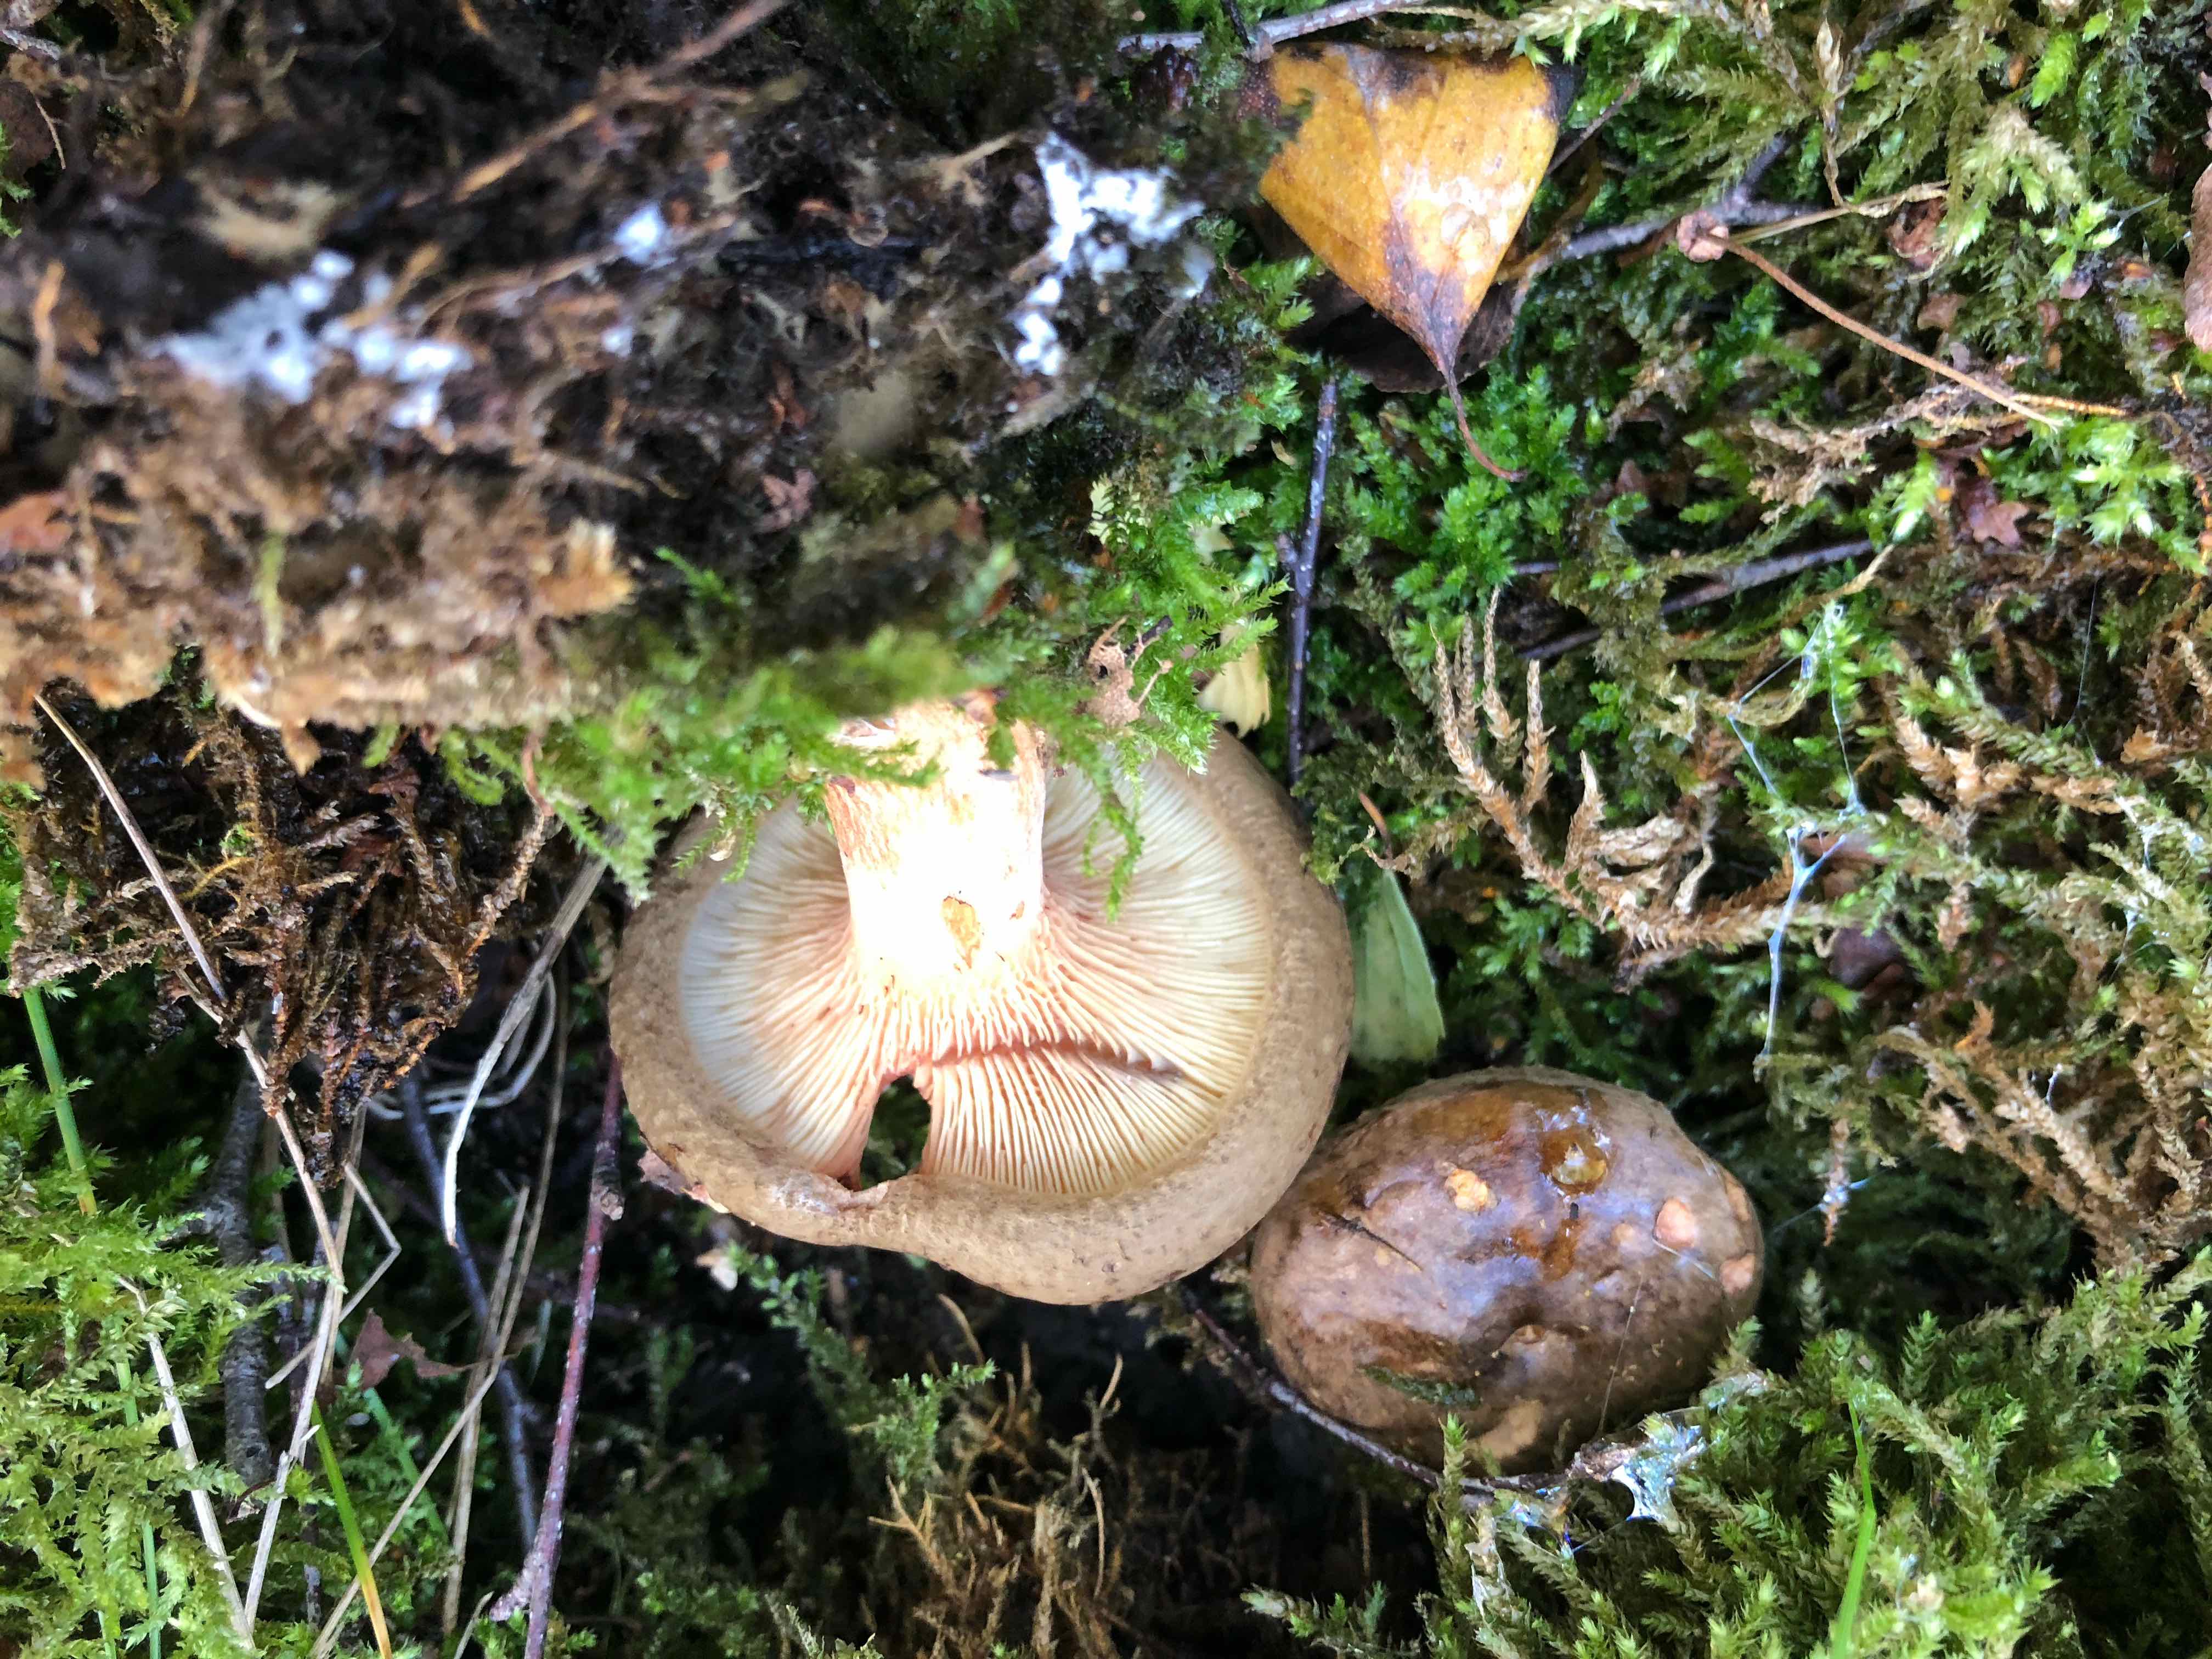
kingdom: Fungi
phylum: Basidiomycota
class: Agaricomycetes
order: Boletales
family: Paxillaceae
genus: Paxillus
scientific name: Paxillus involutus
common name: almindelig netbladhat
